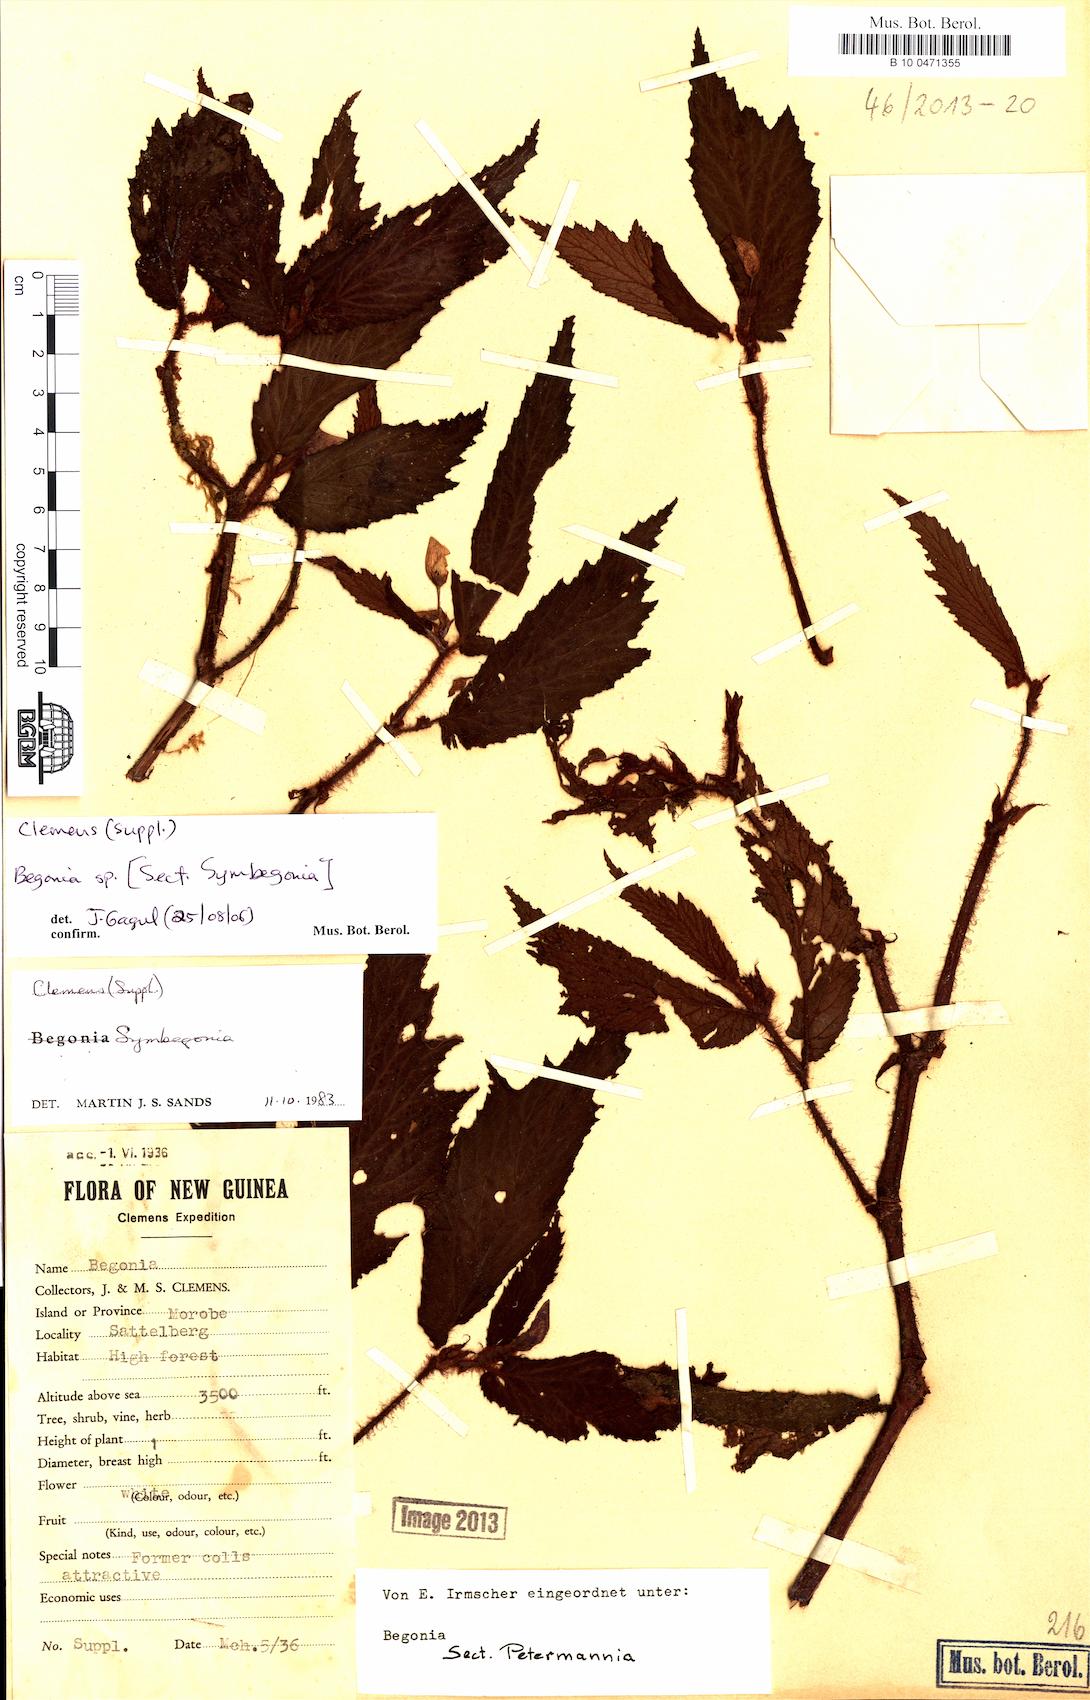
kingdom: Plantae
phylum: Tracheophyta
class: Magnoliopsida
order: Cucurbitales
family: Begoniaceae
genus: Begonia
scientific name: Begonia
